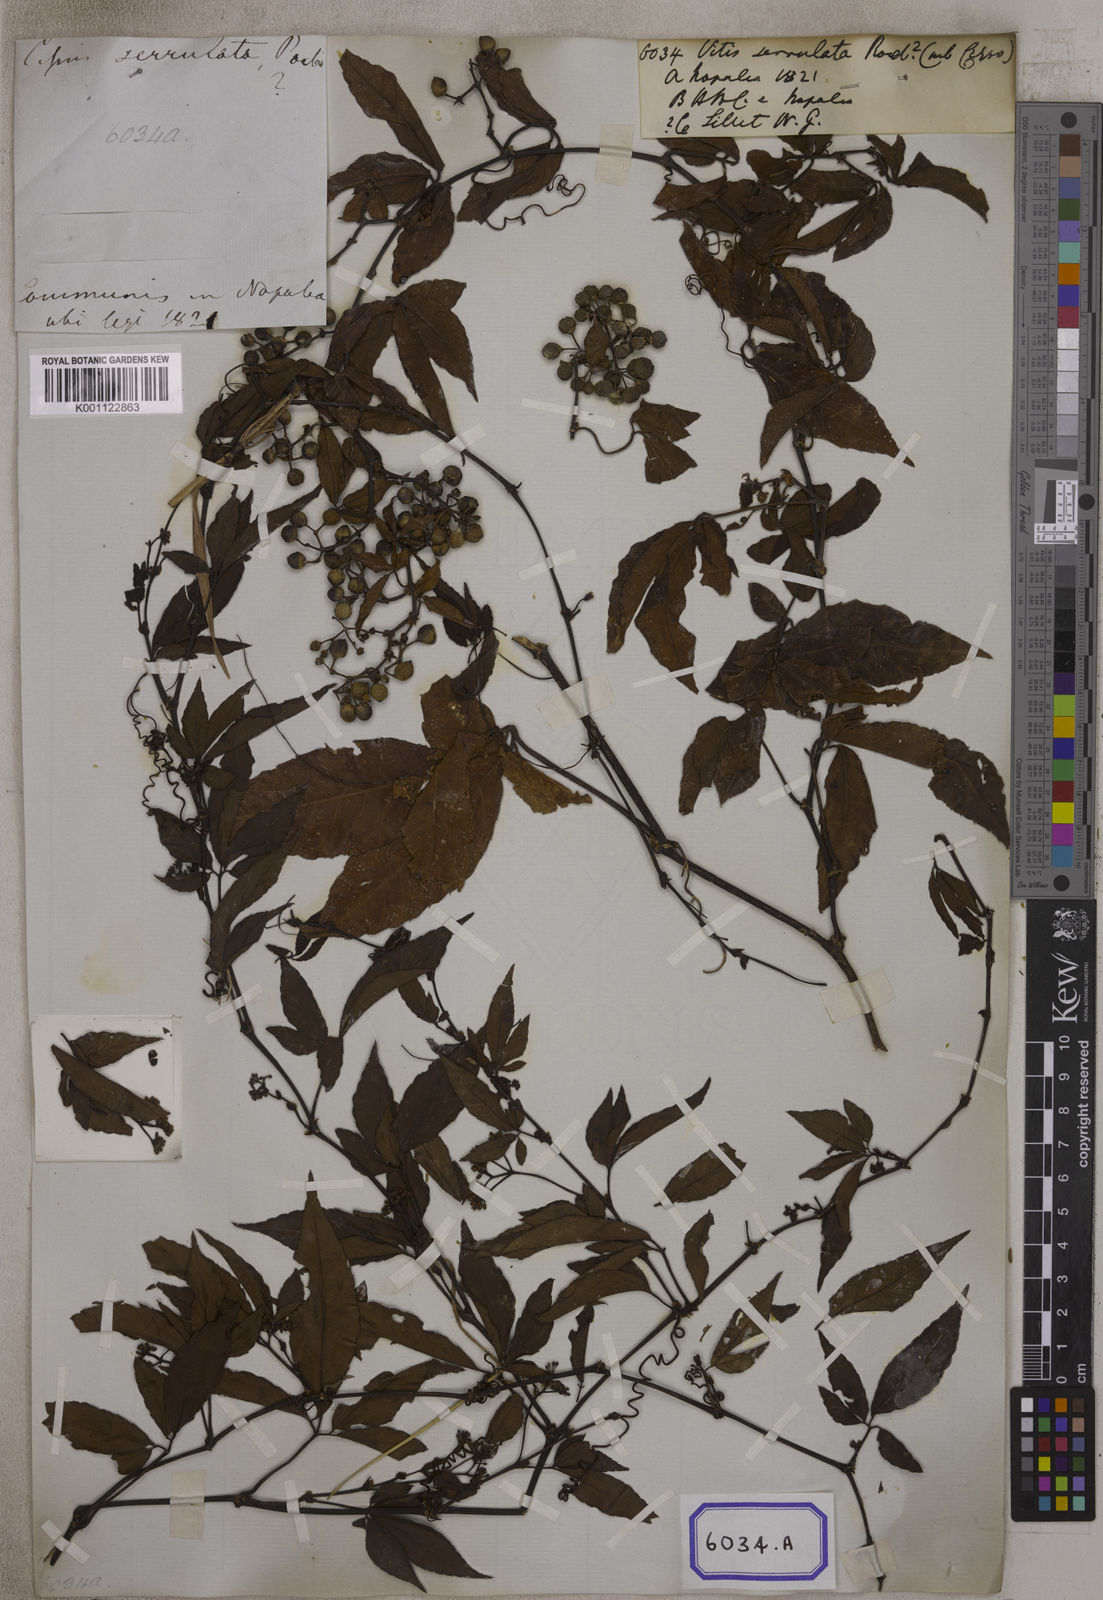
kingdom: Plantae
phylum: Tracheophyta
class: Magnoliopsida
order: Vitales
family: Vitaceae
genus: Tetrastigma
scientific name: Tetrastigma serrulatum
